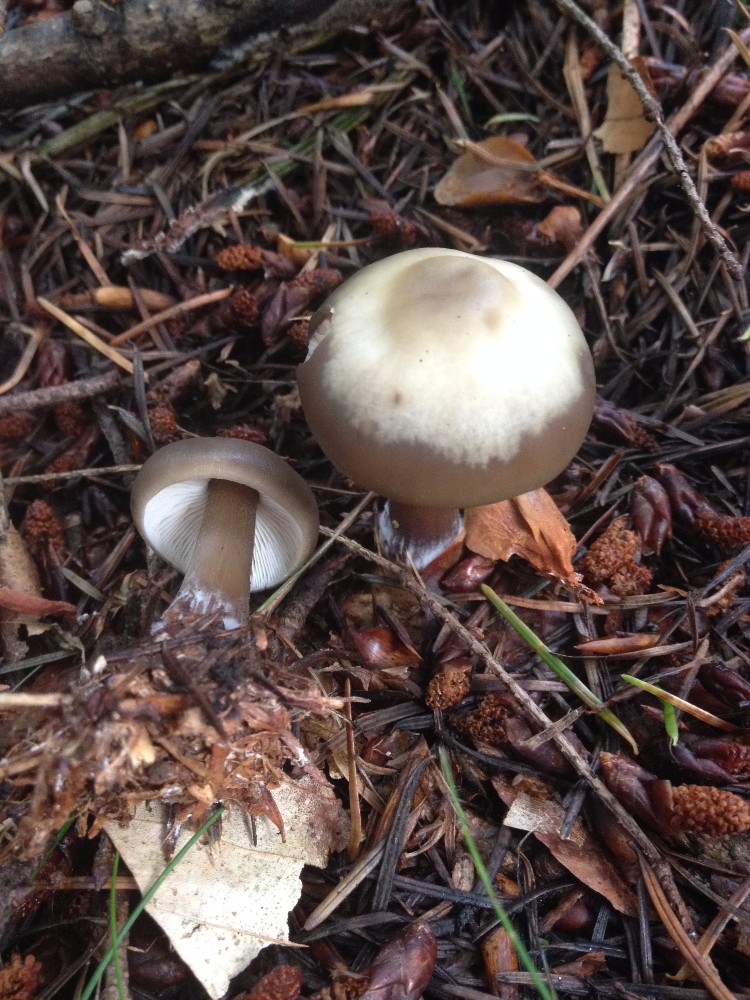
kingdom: Fungi
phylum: Basidiomycota
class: Agaricomycetes
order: Agaricales
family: Omphalotaceae
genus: Rhodocollybia
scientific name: Rhodocollybia asema
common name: horngrå fladhat
